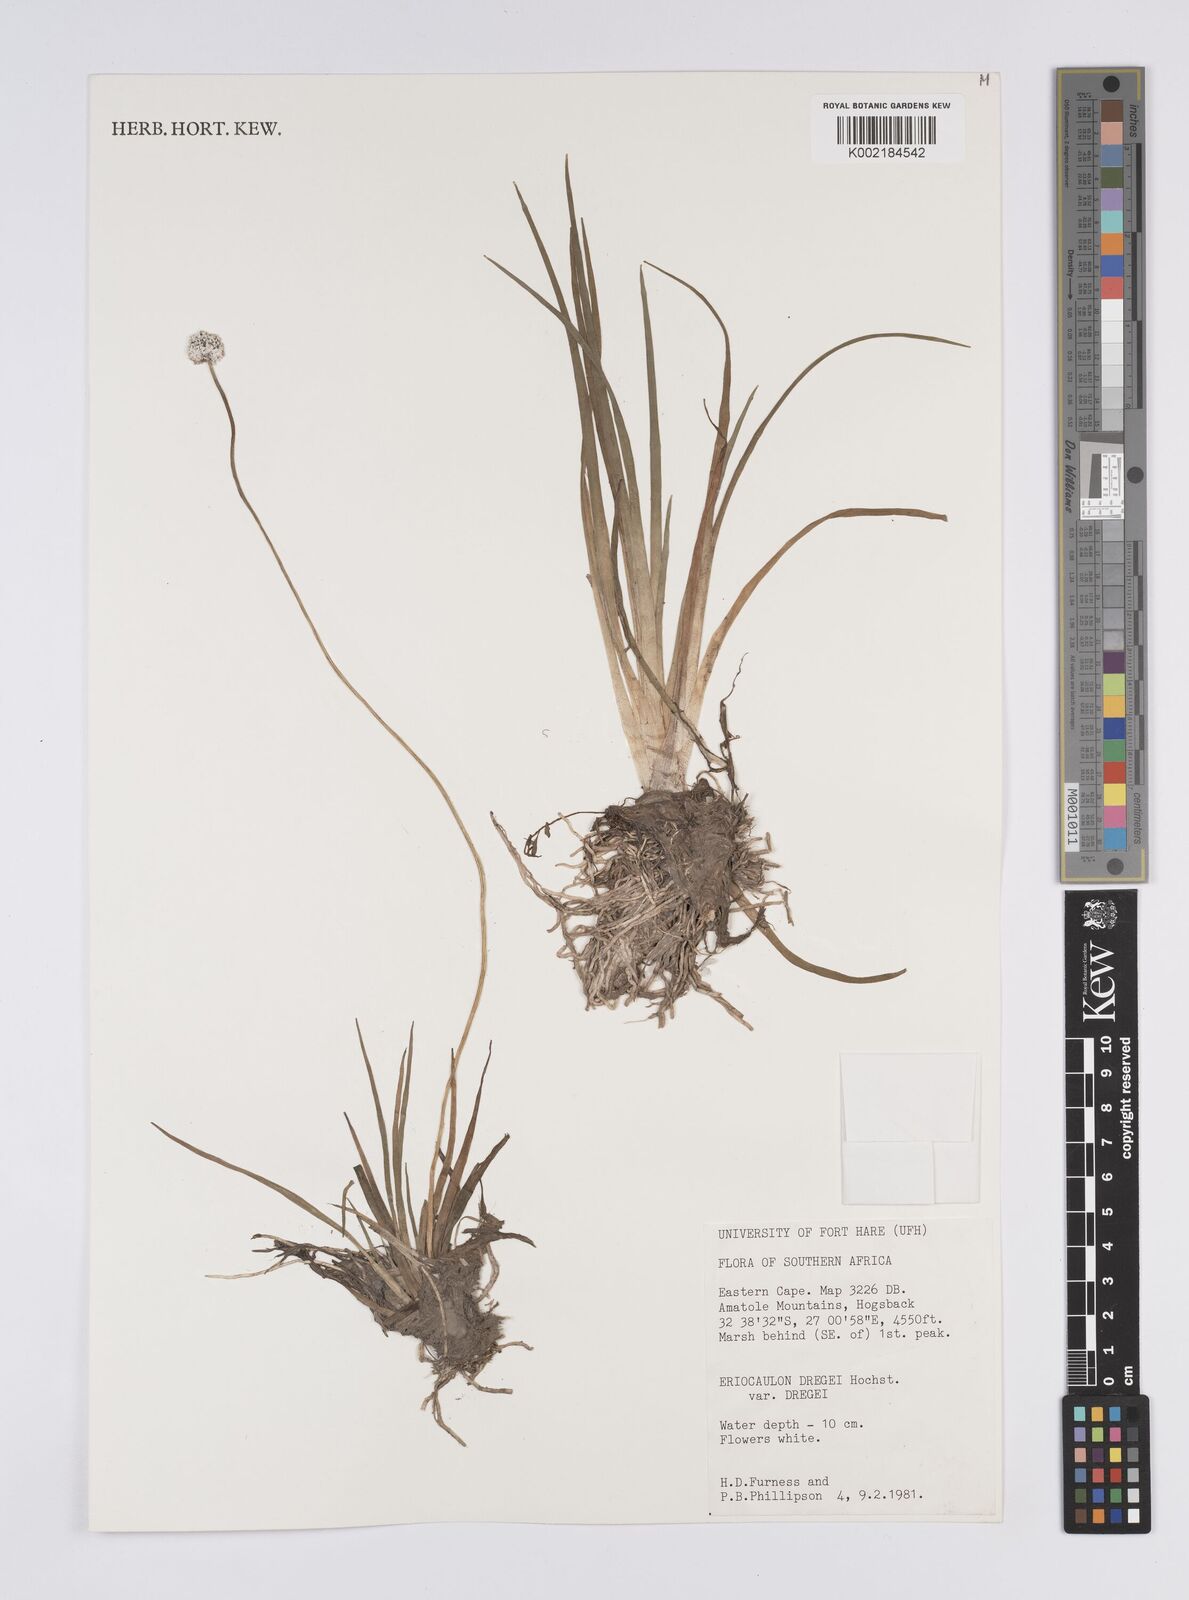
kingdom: Plantae
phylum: Tracheophyta
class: Liliopsida
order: Poales
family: Eriocaulaceae
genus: Eriocaulon
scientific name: Eriocaulon dregei
